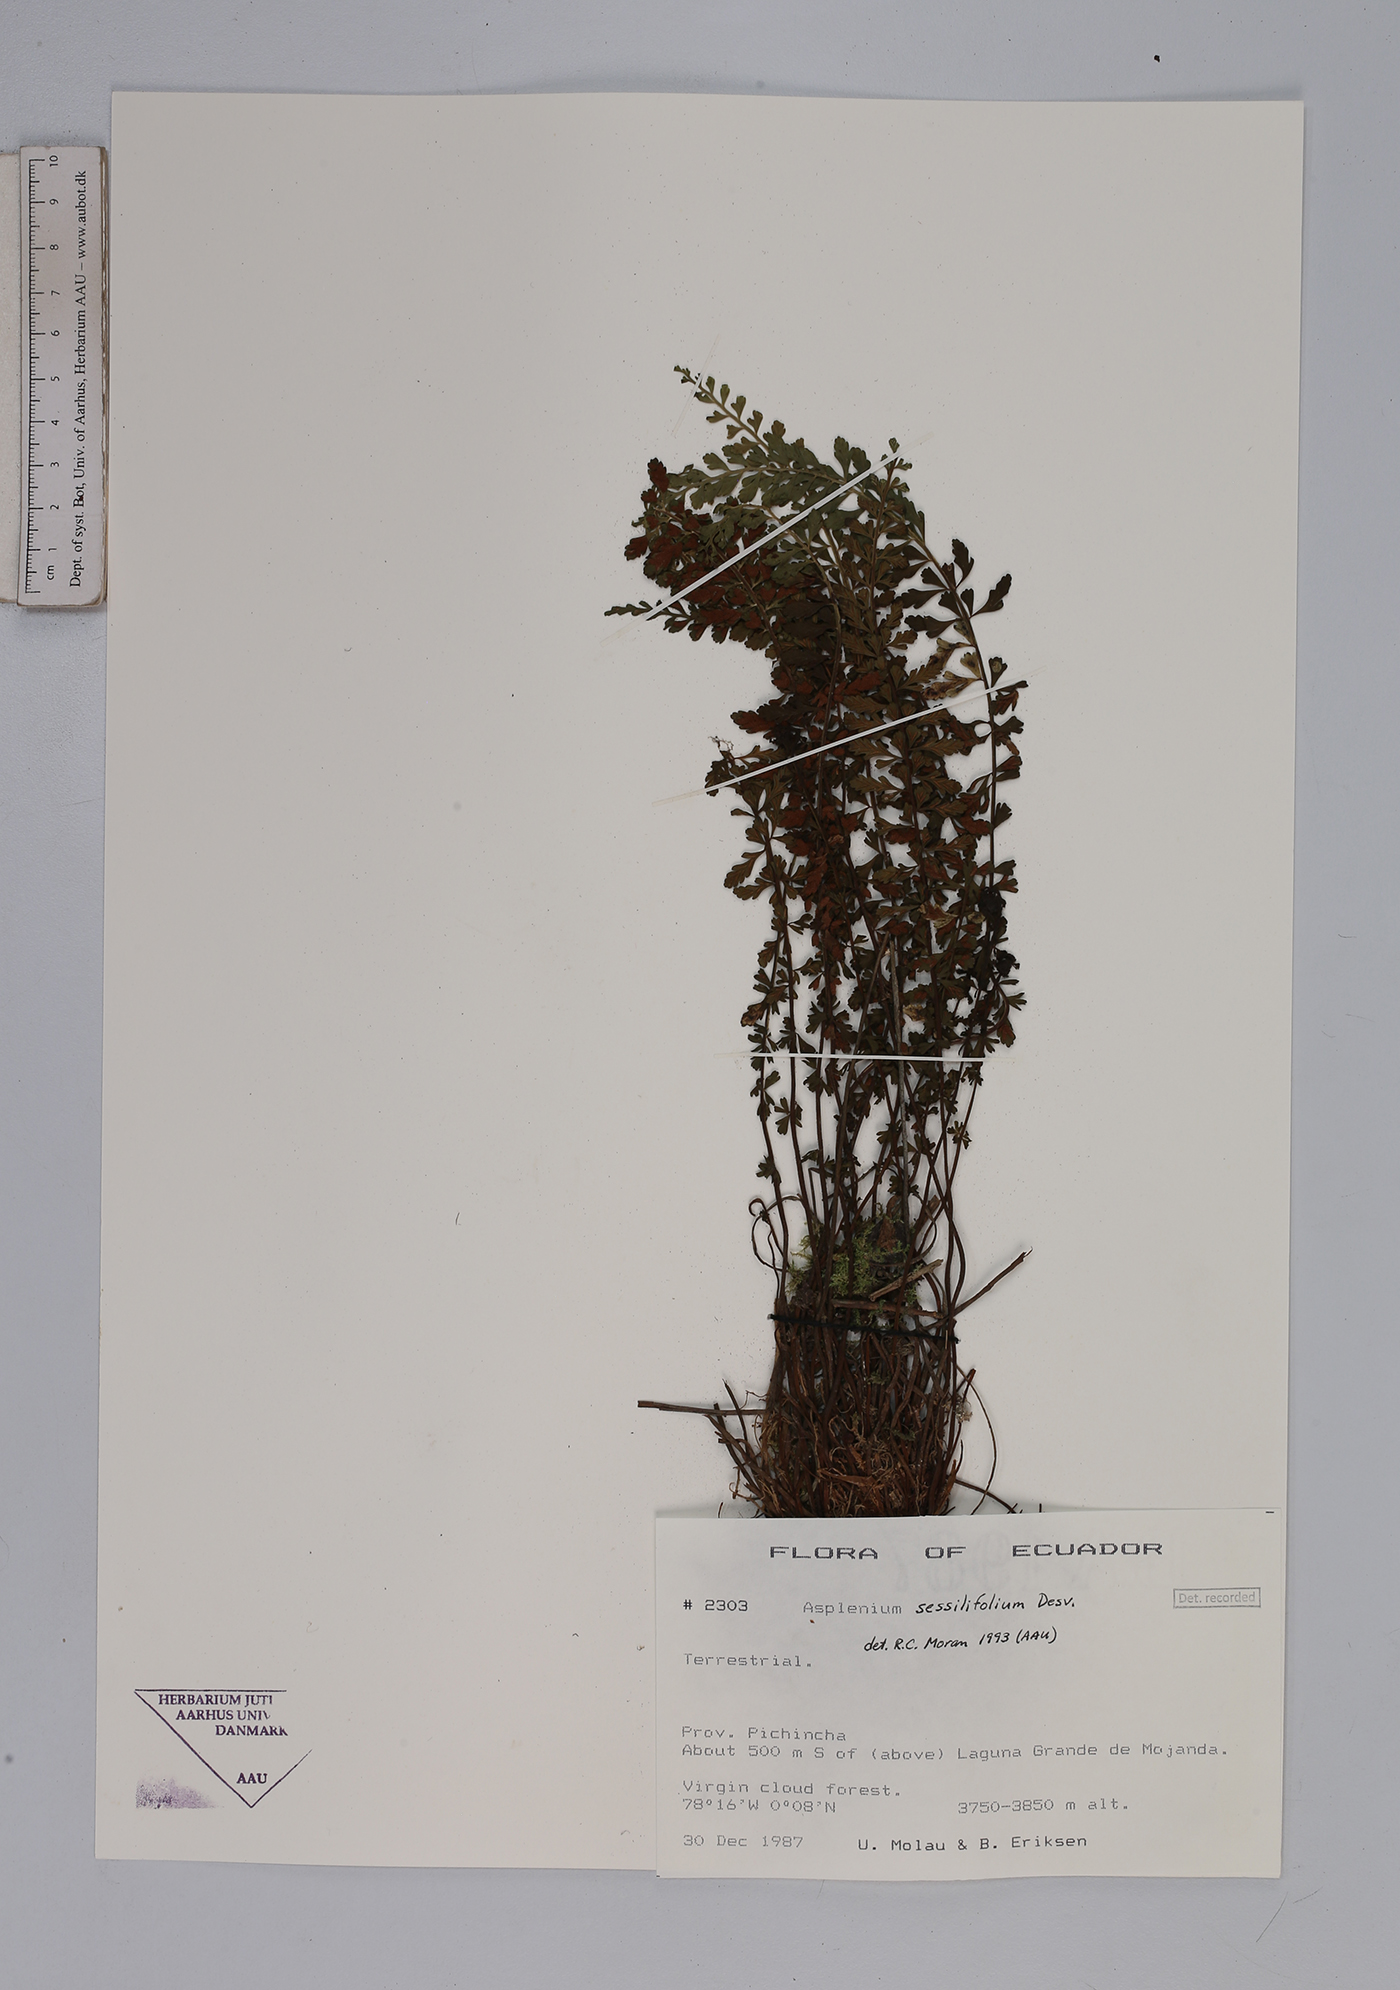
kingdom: Plantae
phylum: Tracheophyta
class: Polypodiopsida
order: Polypodiales
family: Aspleniaceae
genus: Asplenium
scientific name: Asplenium sessilifolium
